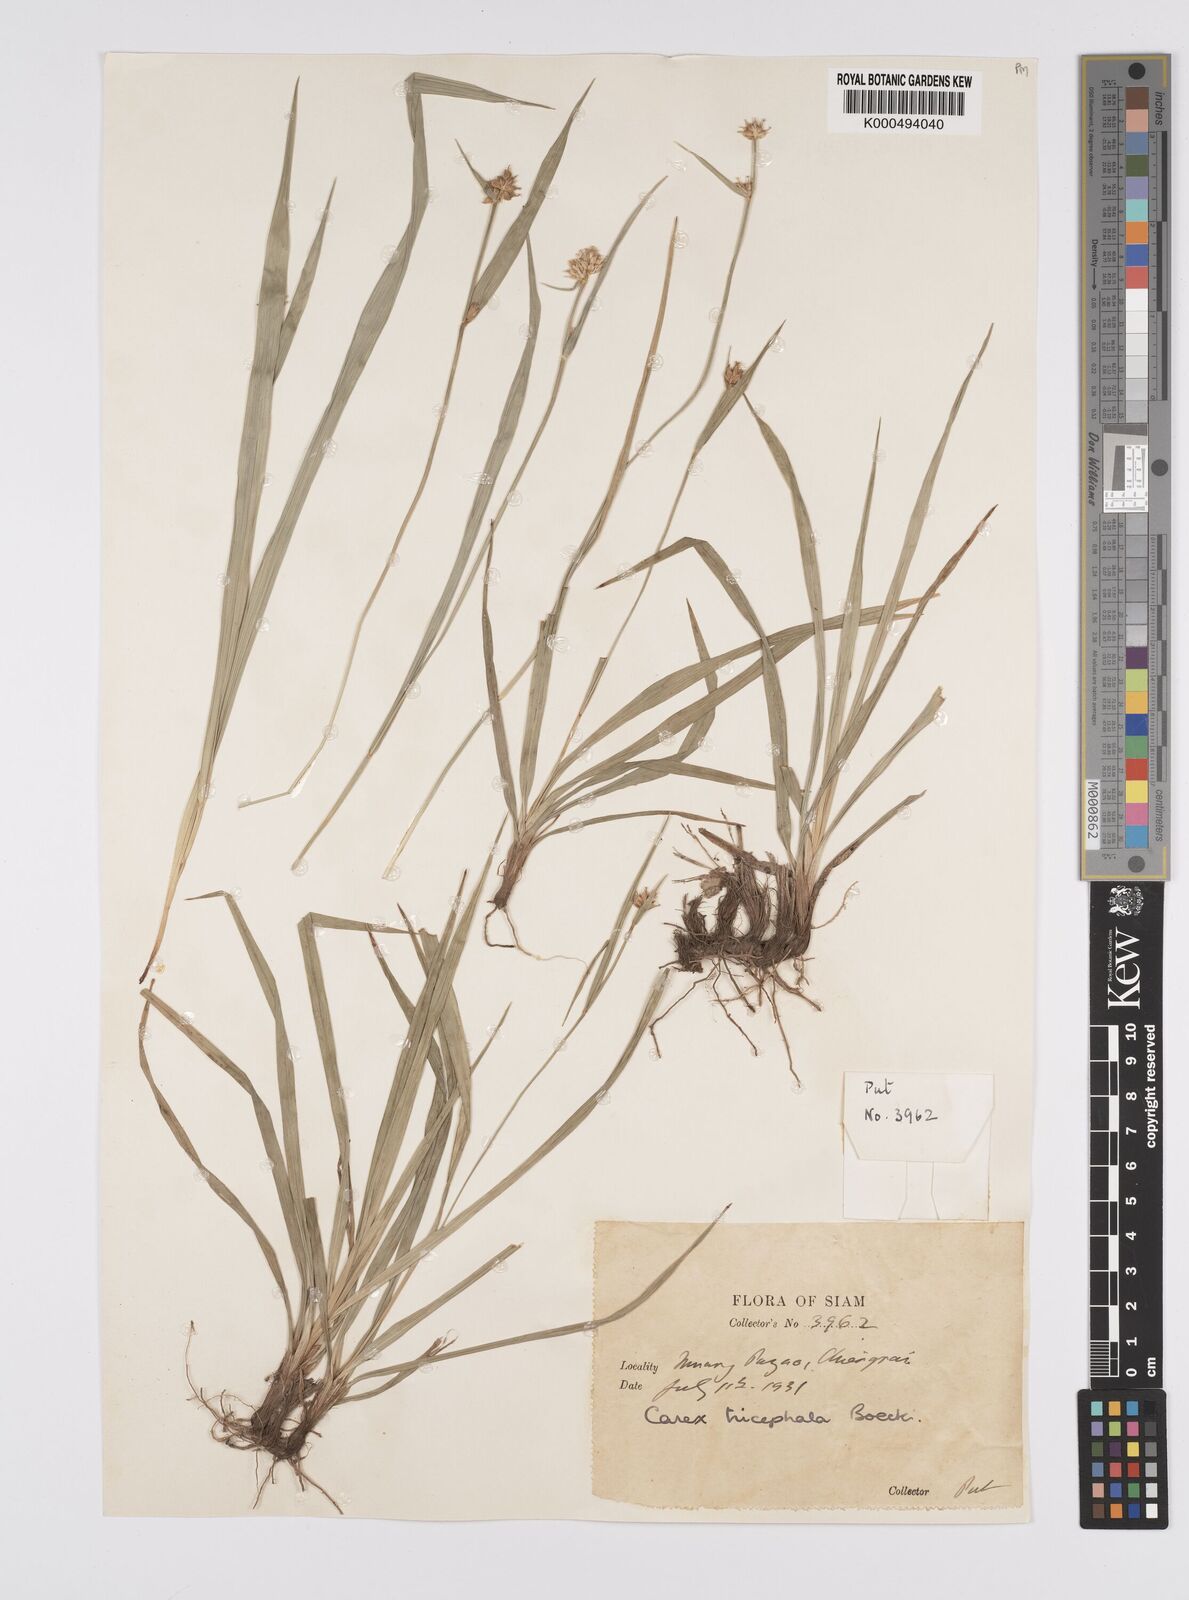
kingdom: Plantae
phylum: Tracheophyta
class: Liliopsida
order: Poales
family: Cyperaceae
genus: Carex
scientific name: Carex tricephala
